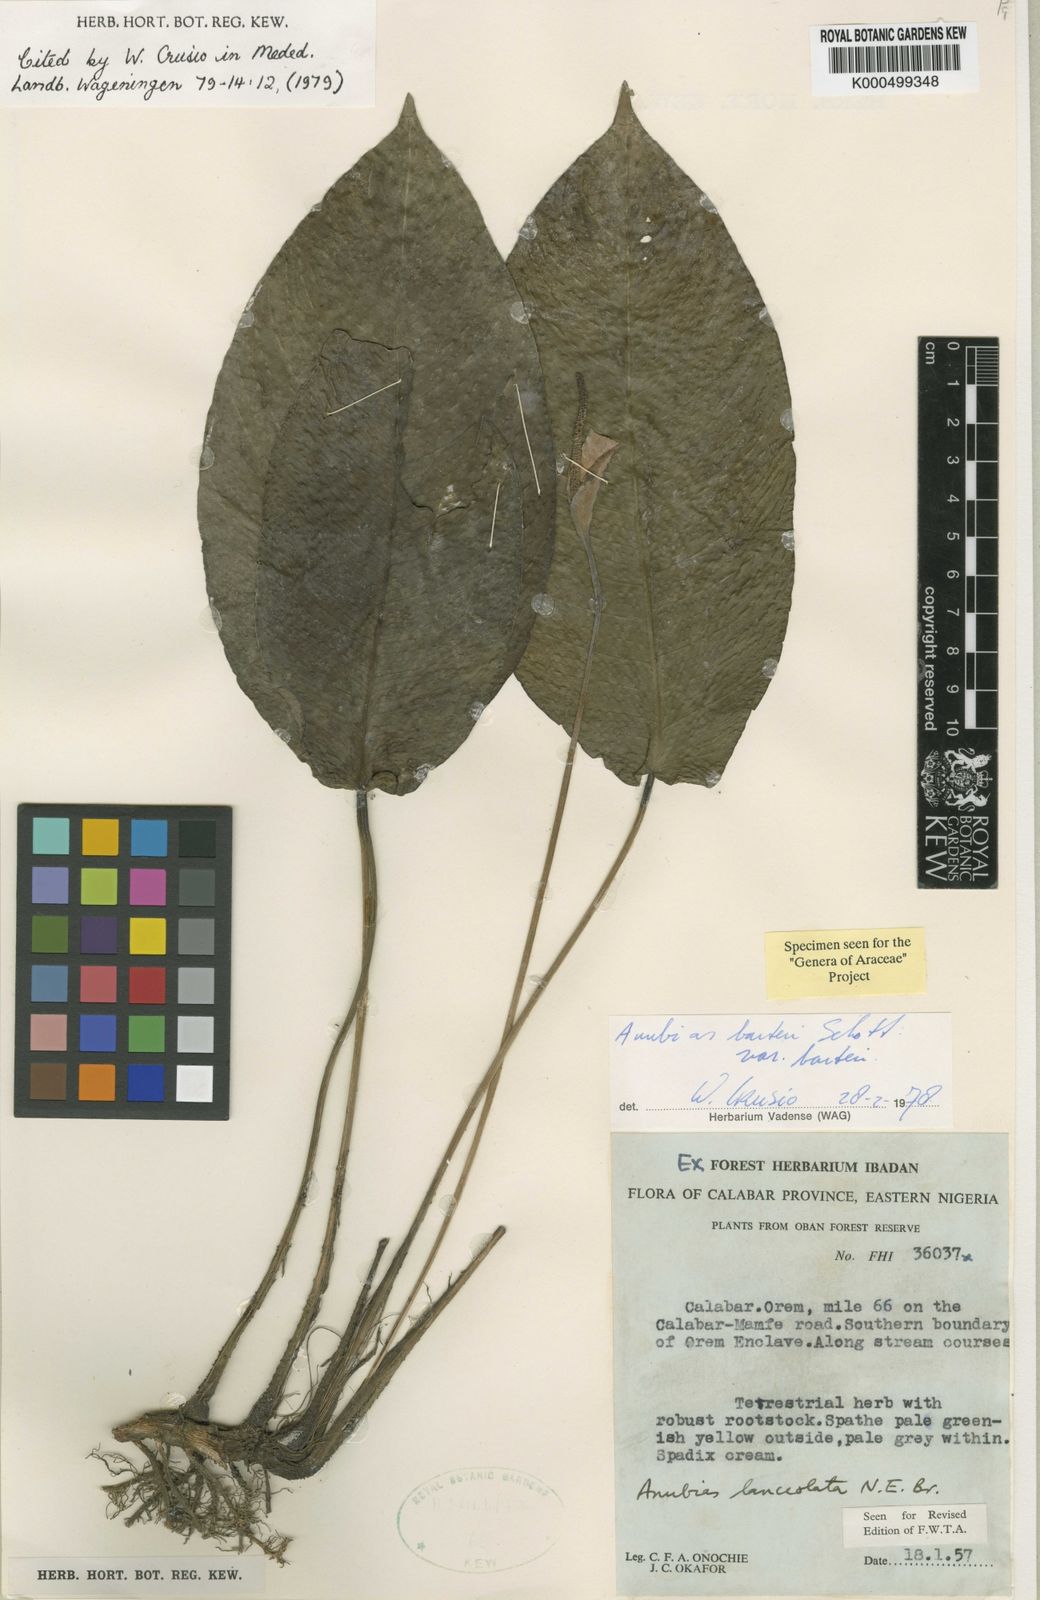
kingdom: Plantae
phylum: Tracheophyta
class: Liliopsida
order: Alismatales
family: Araceae
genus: Anubias
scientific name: Anubias barteri
